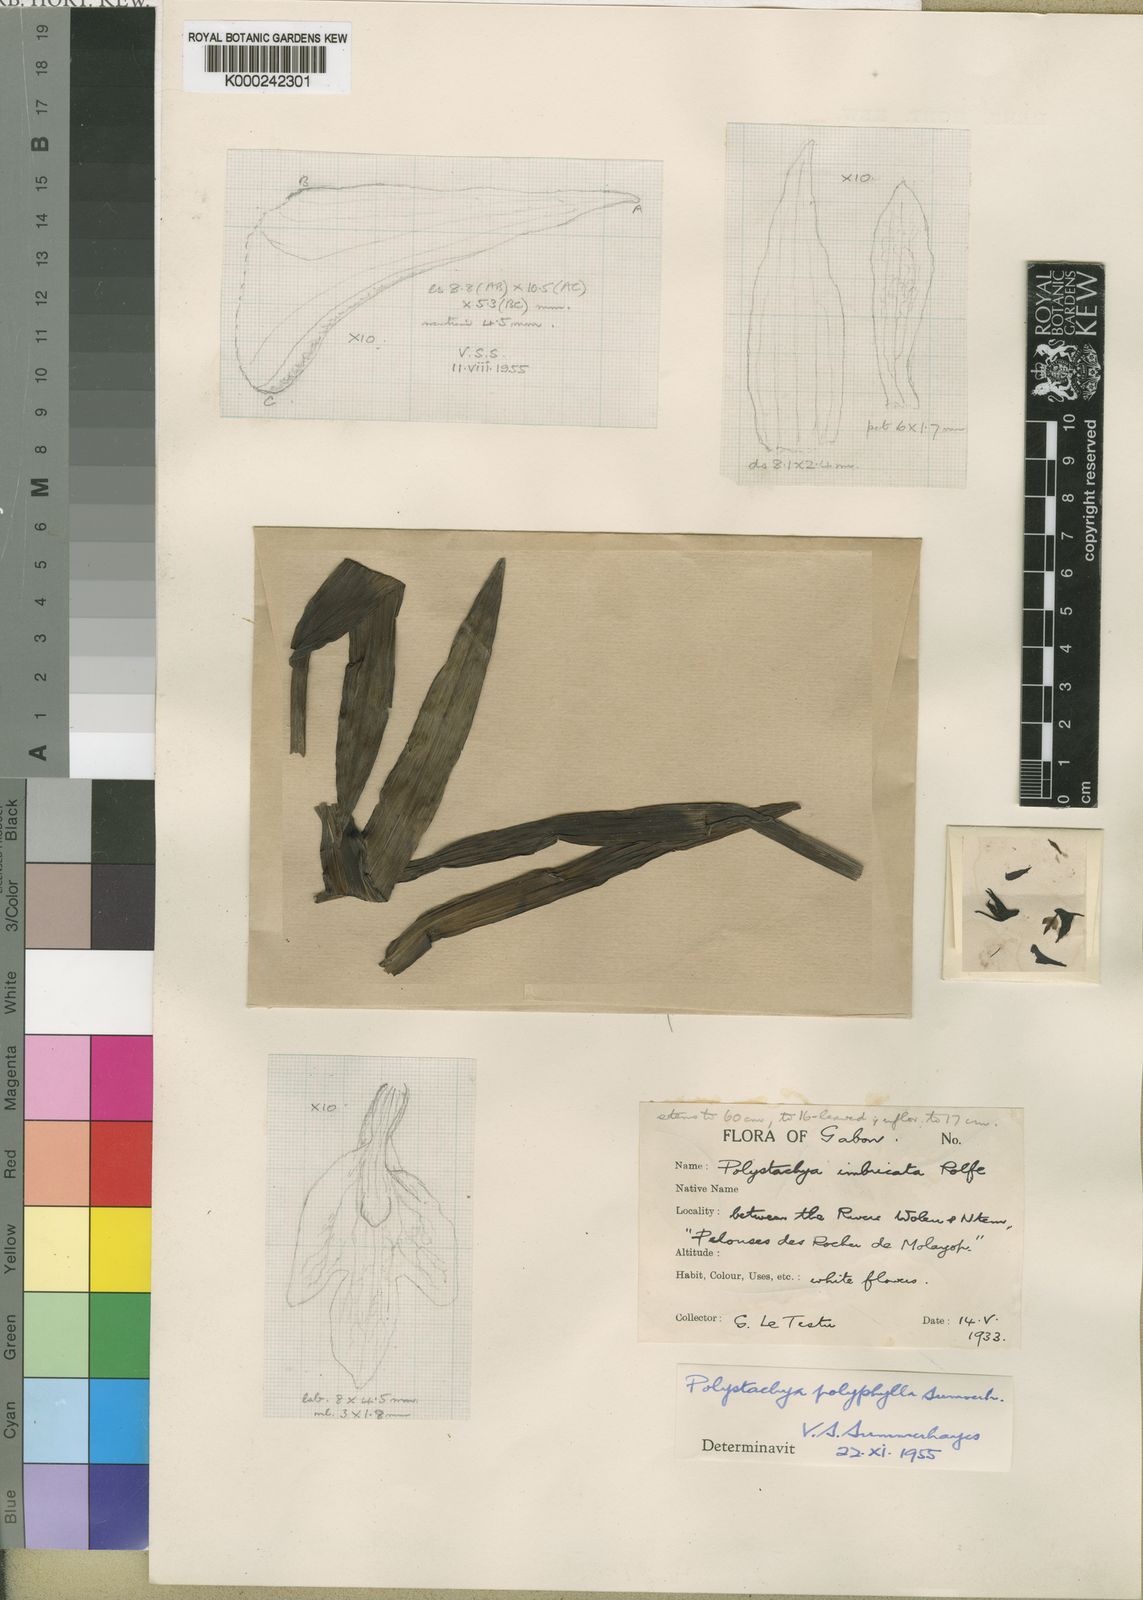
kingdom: Plantae
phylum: Tracheophyta
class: Liliopsida
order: Asparagales
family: Orchidaceae
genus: Polystachya
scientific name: Polystachya albescens
